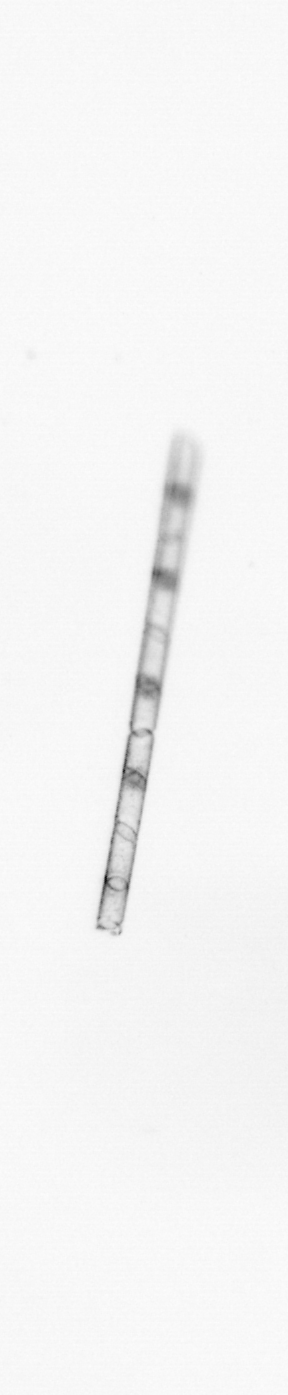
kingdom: Chromista
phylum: Ochrophyta
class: Bacillariophyceae
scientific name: Bacillariophyceae
